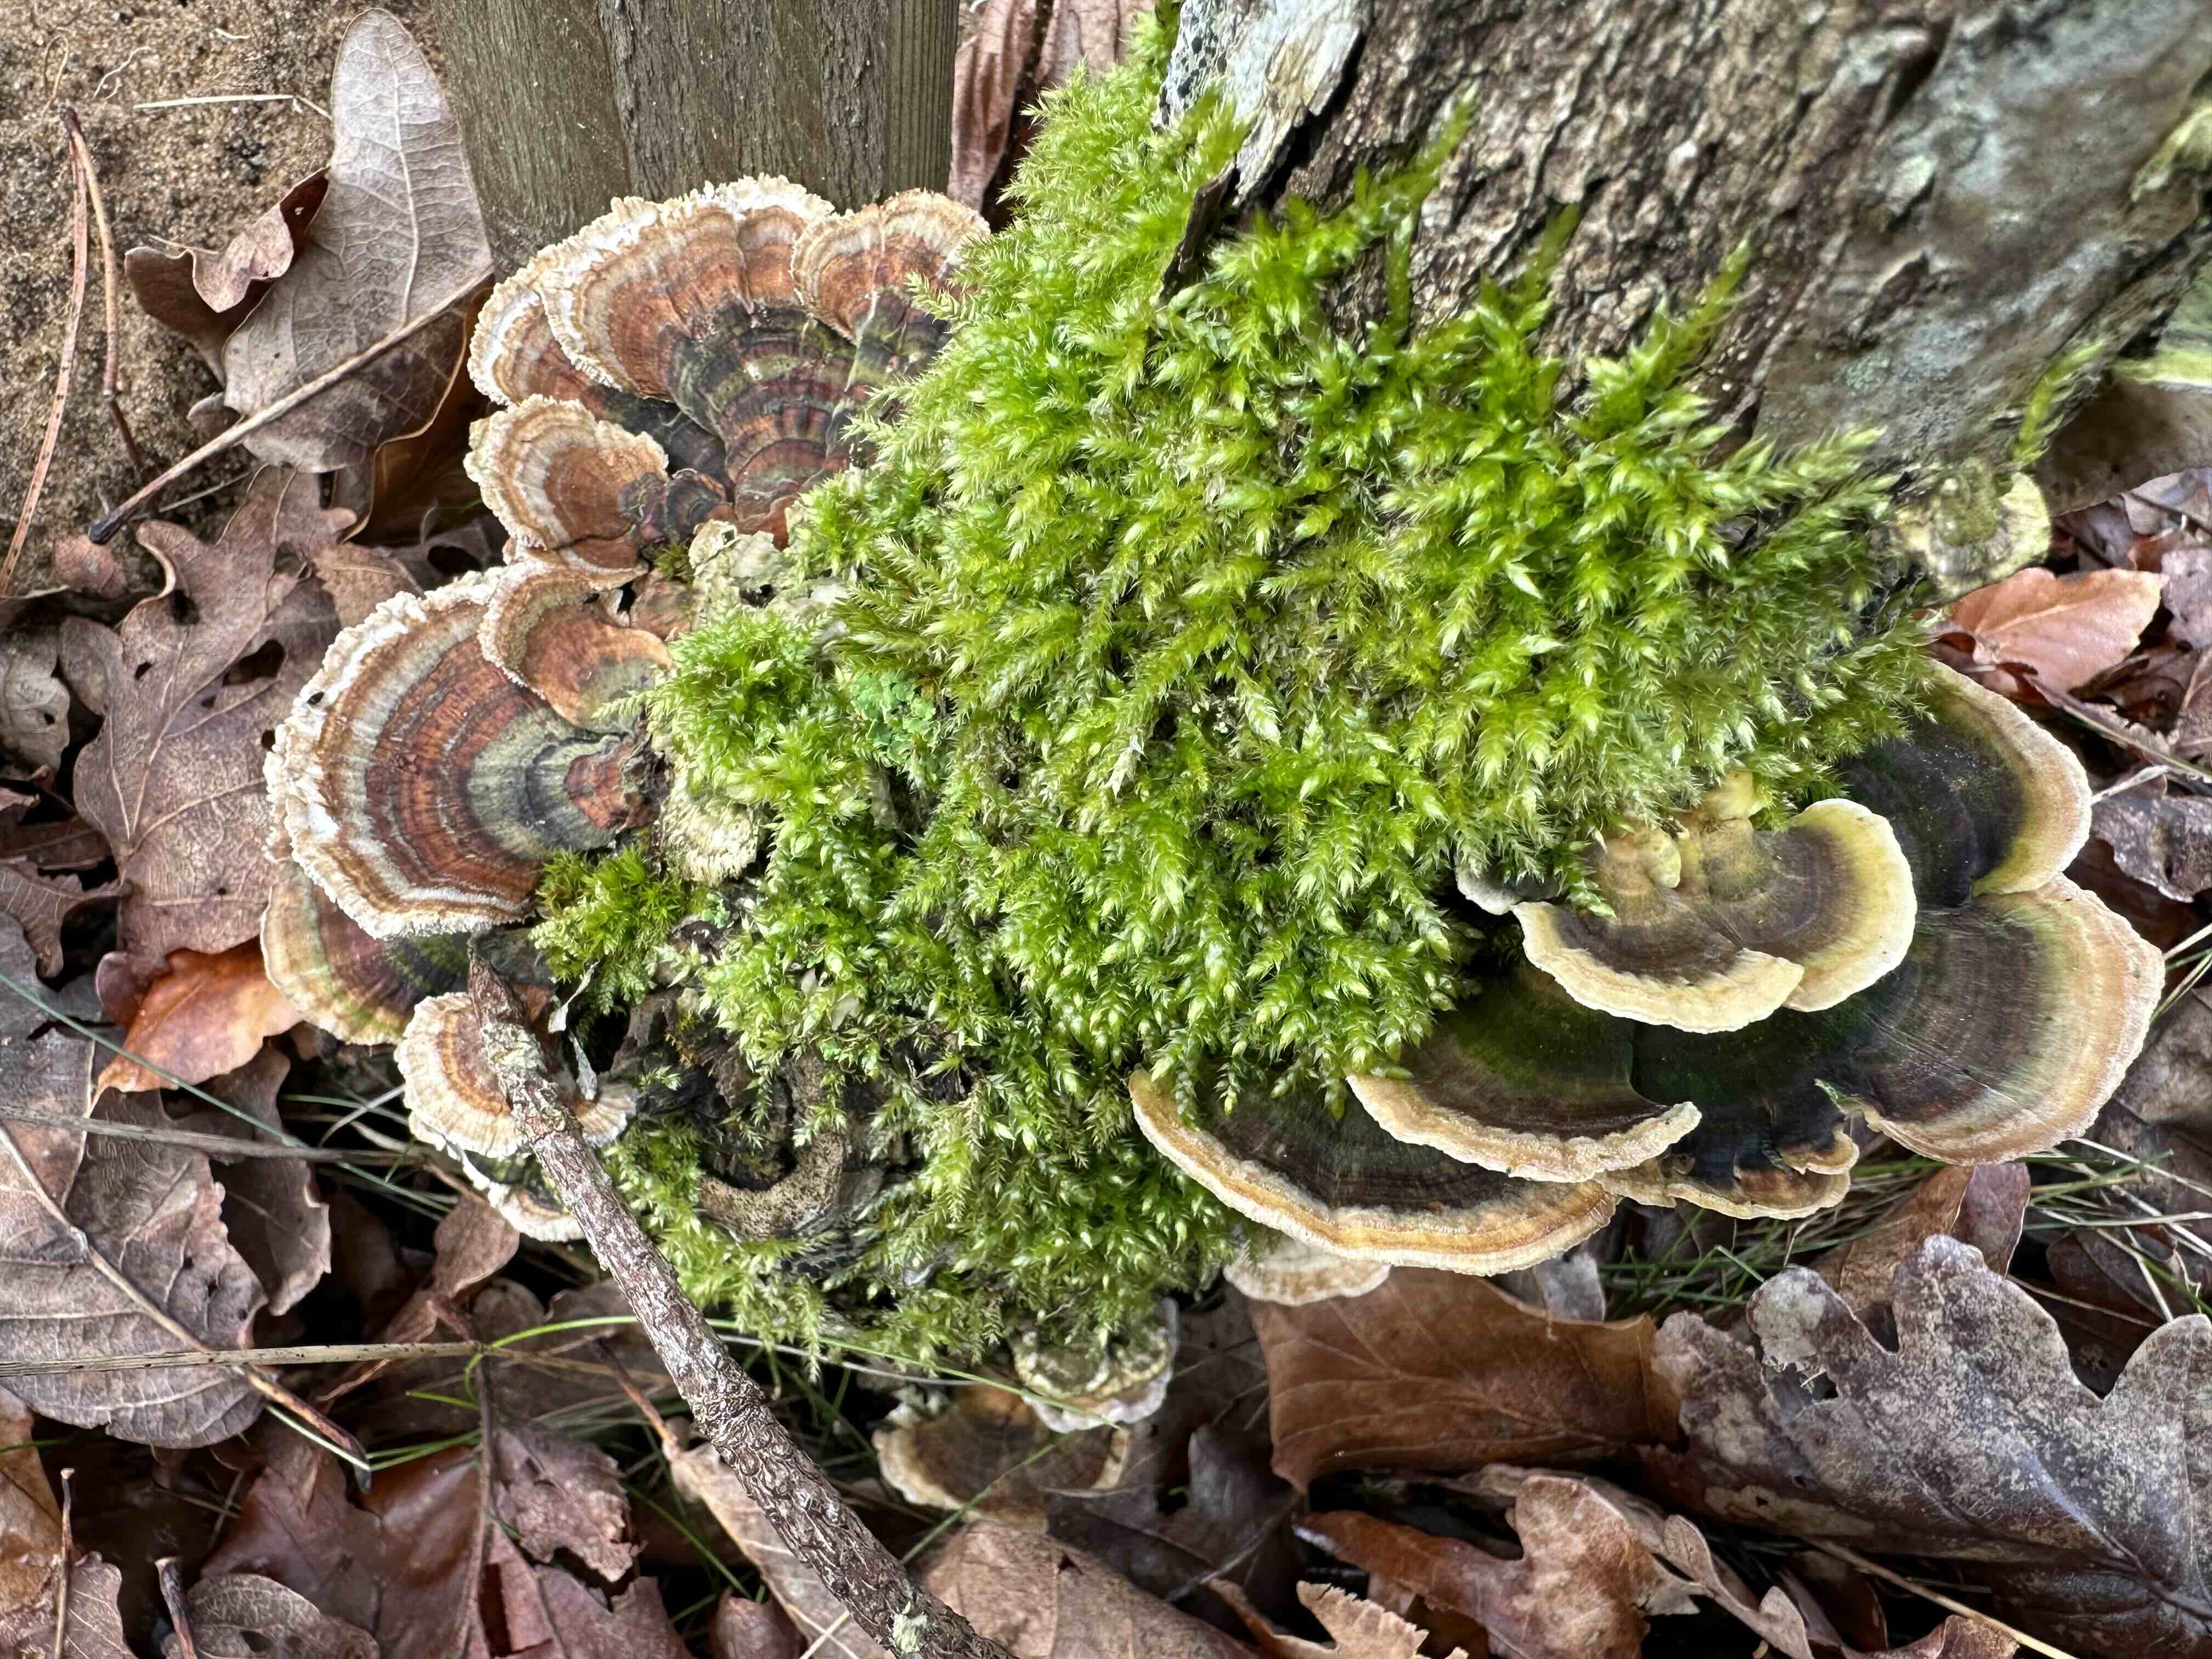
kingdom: Fungi
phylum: Basidiomycota
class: Agaricomycetes
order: Polyporales
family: Polyporaceae
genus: Trametes
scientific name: Trametes versicolor
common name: broget læderporesvamp
